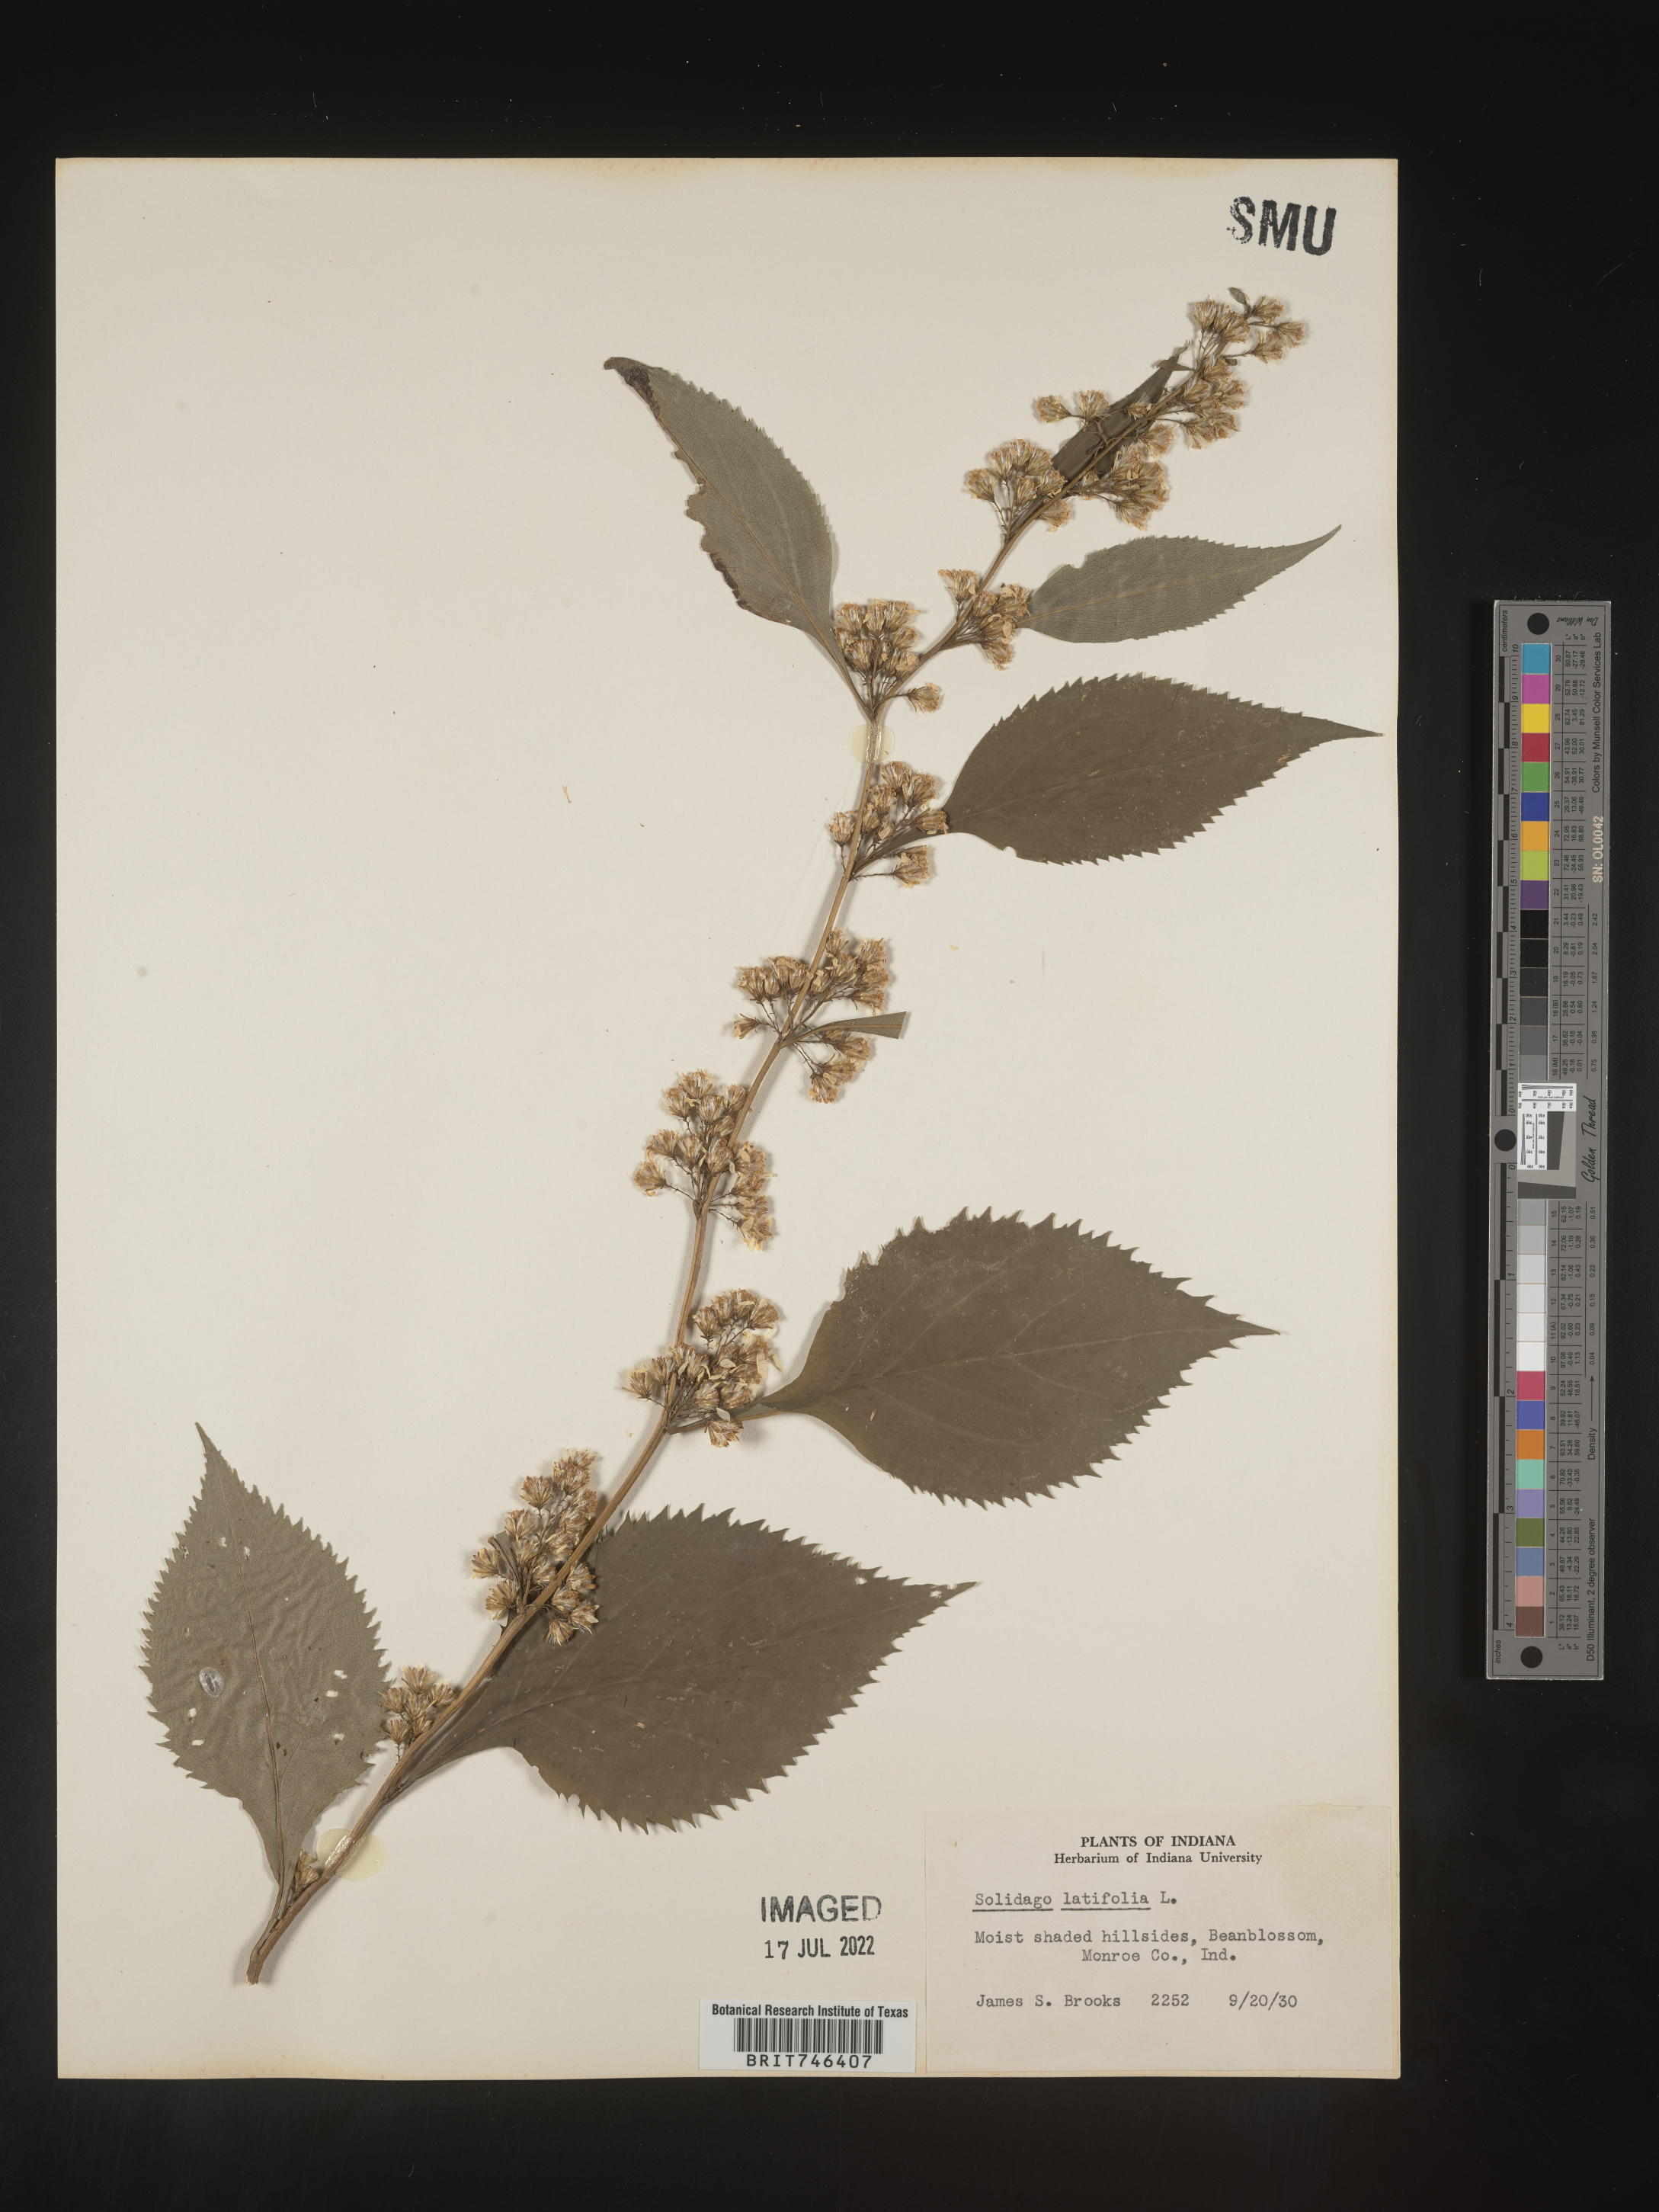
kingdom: Plantae
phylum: Tracheophyta
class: Magnoliopsida
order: Asterales
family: Asteraceae
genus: Solidago
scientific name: Solidago flexicaulis
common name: Zig-zag goldenrod
